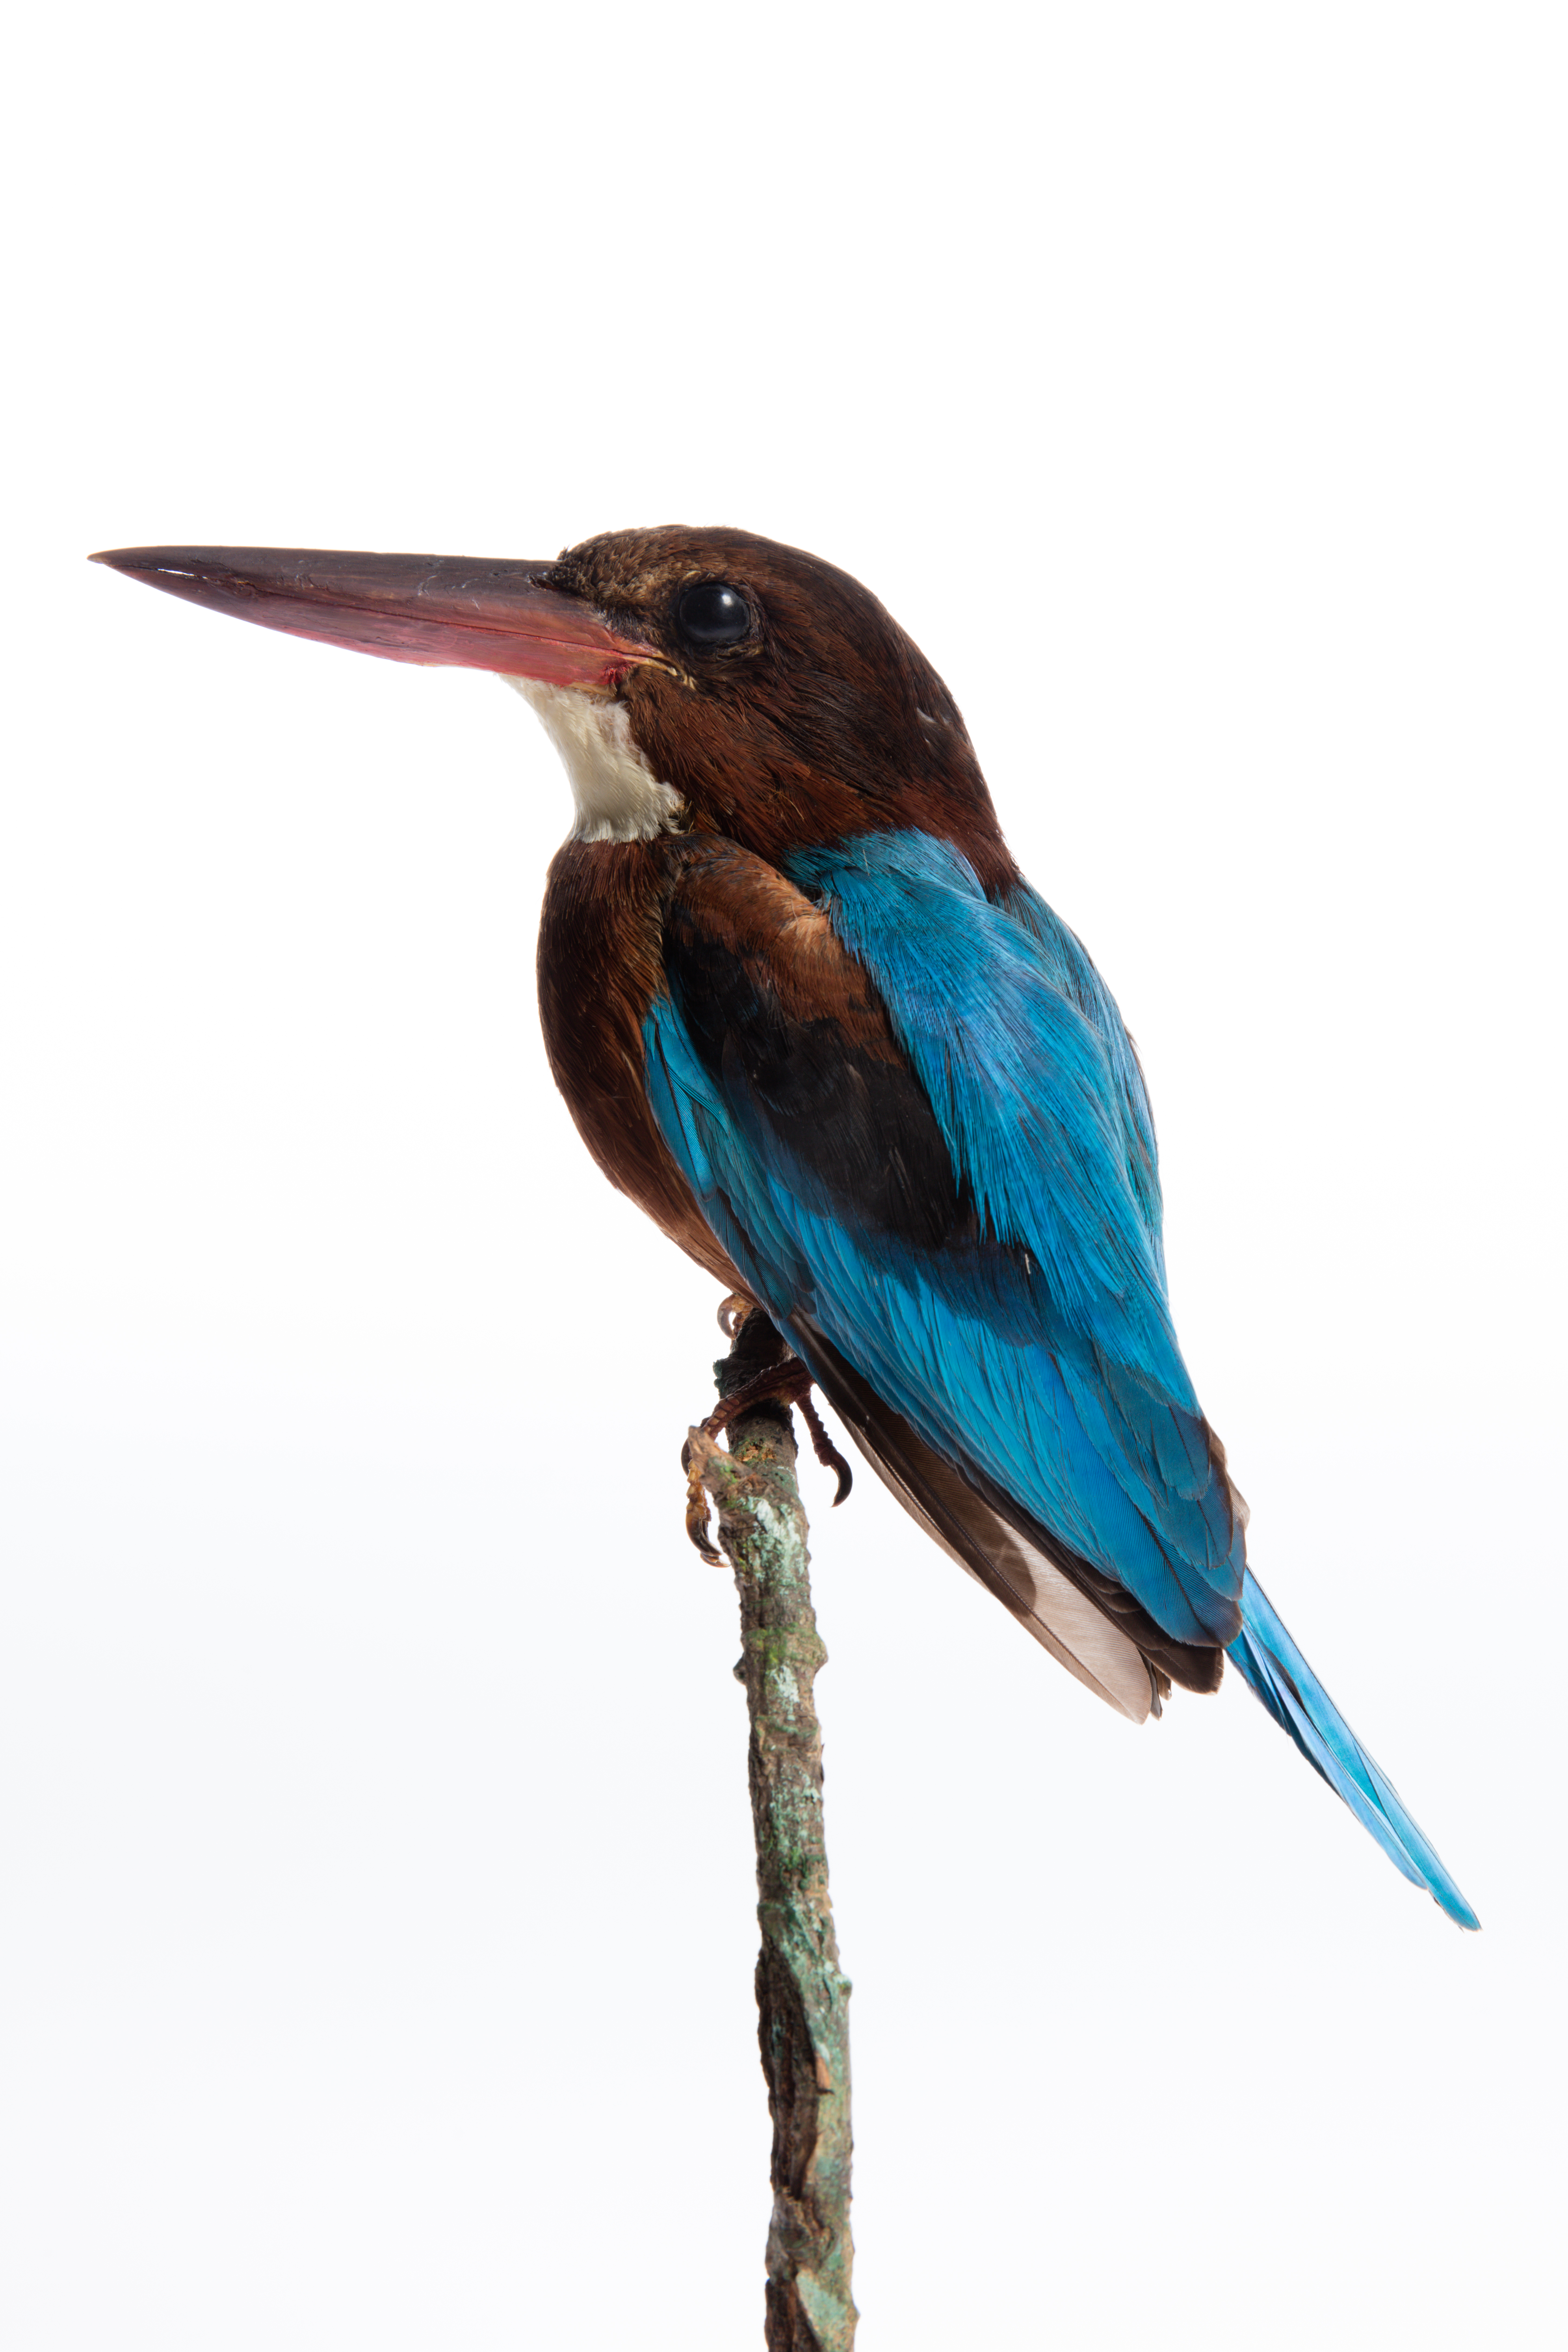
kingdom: Animalia
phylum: Chordata
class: Aves
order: Coraciiformes
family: Alcedinidae
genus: Halcyon
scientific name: Halcyon smyrnensis
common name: White-throated kingfisher
